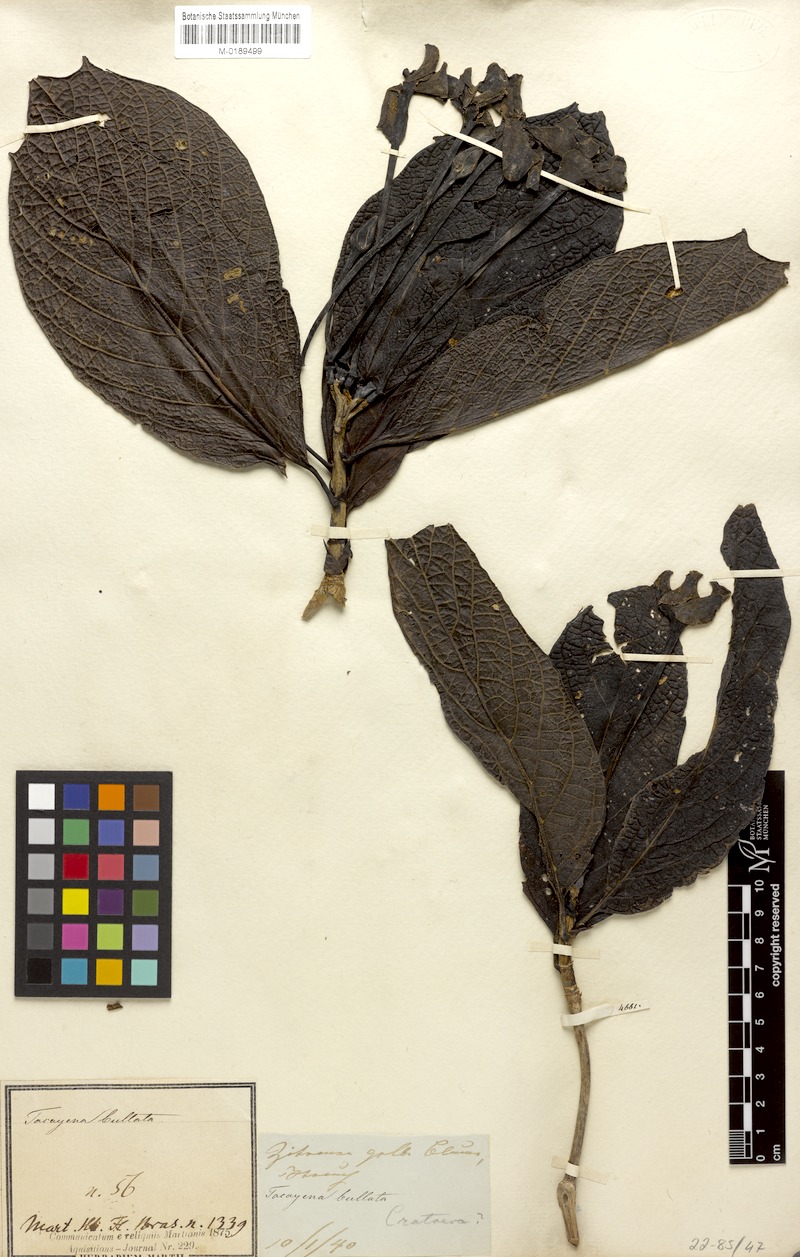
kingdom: Plantae
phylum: Tracheophyta
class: Magnoliopsida
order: Gentianales
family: Rubiaceae
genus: Tocoyena
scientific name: Tocoyena bullata
